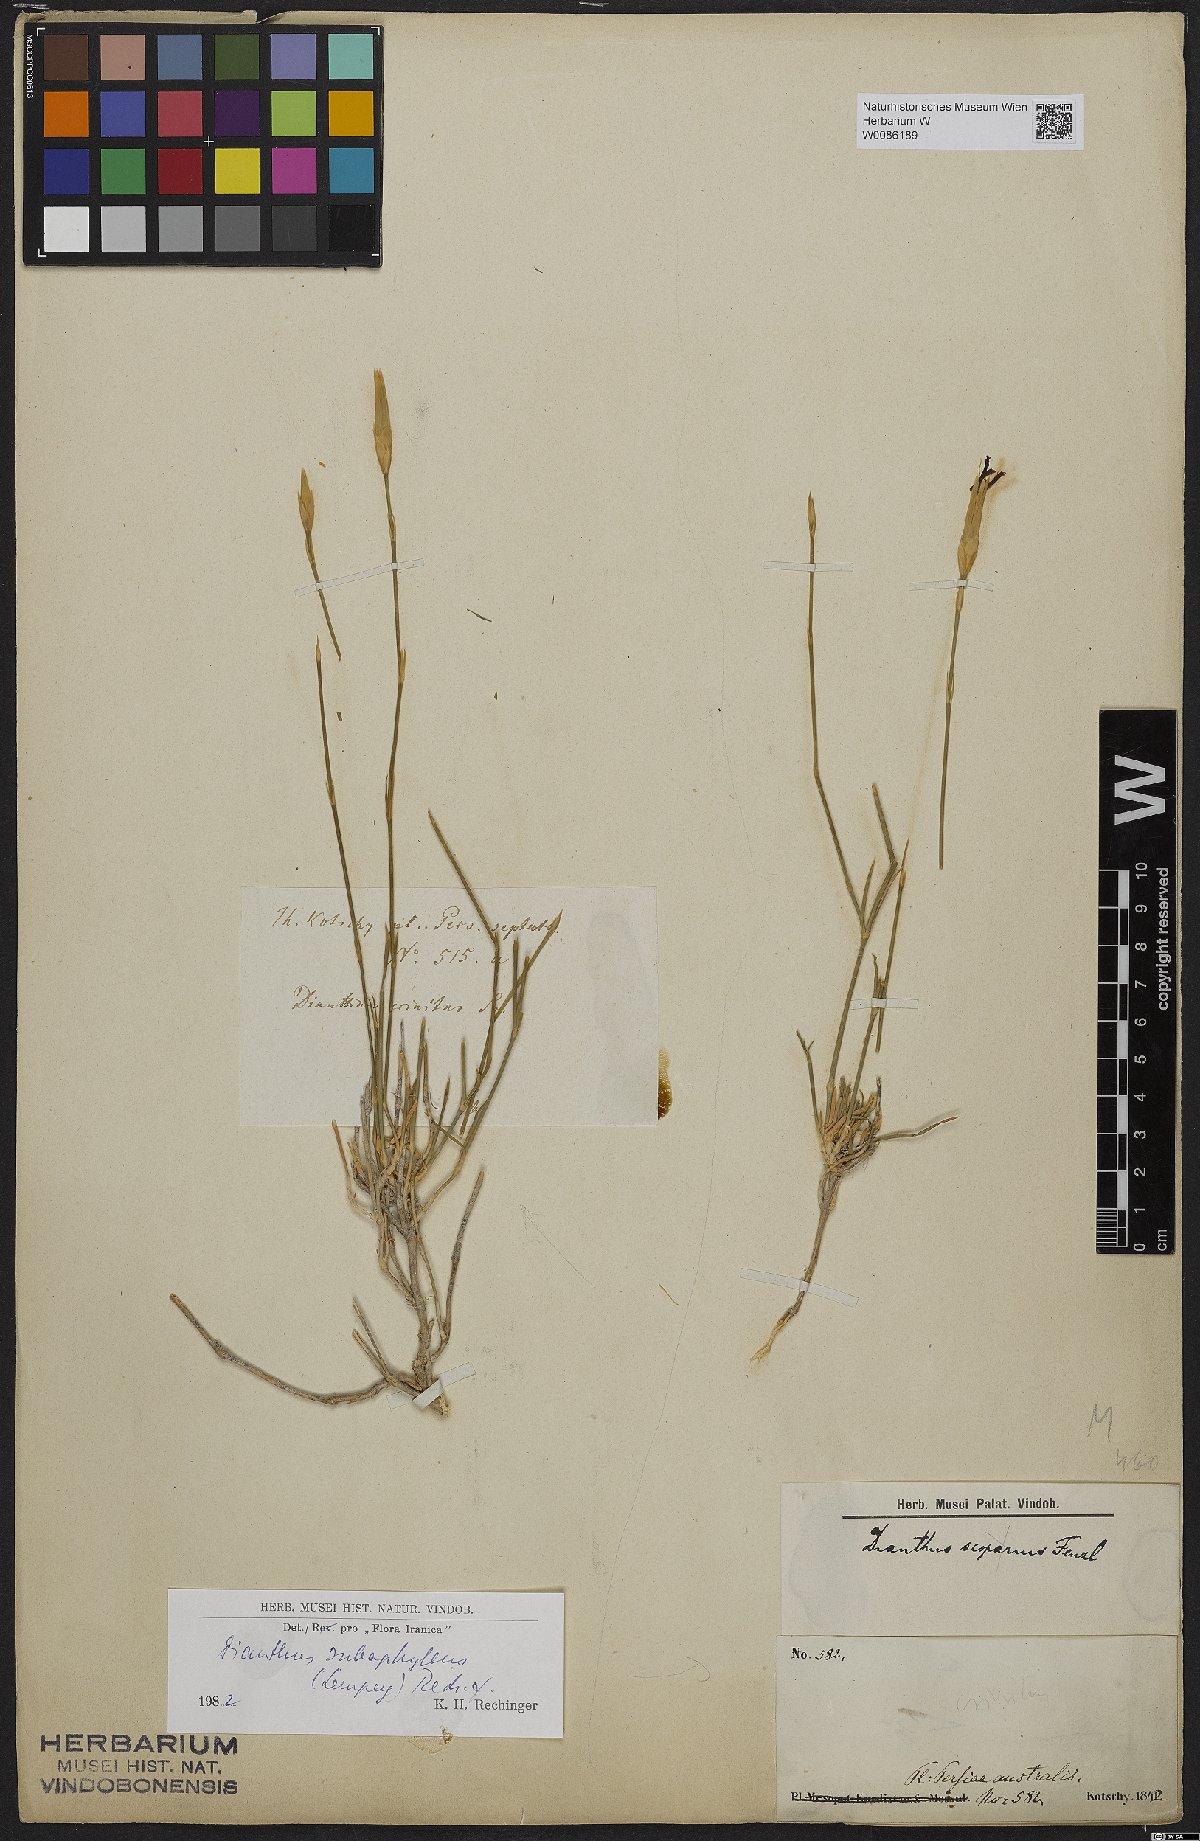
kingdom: Plantae
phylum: Tracheophyta
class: Magnoliopsida
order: Caryophyllales
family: Caryophyllaceae
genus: Dianthus
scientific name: Dianthus subaphyllus
